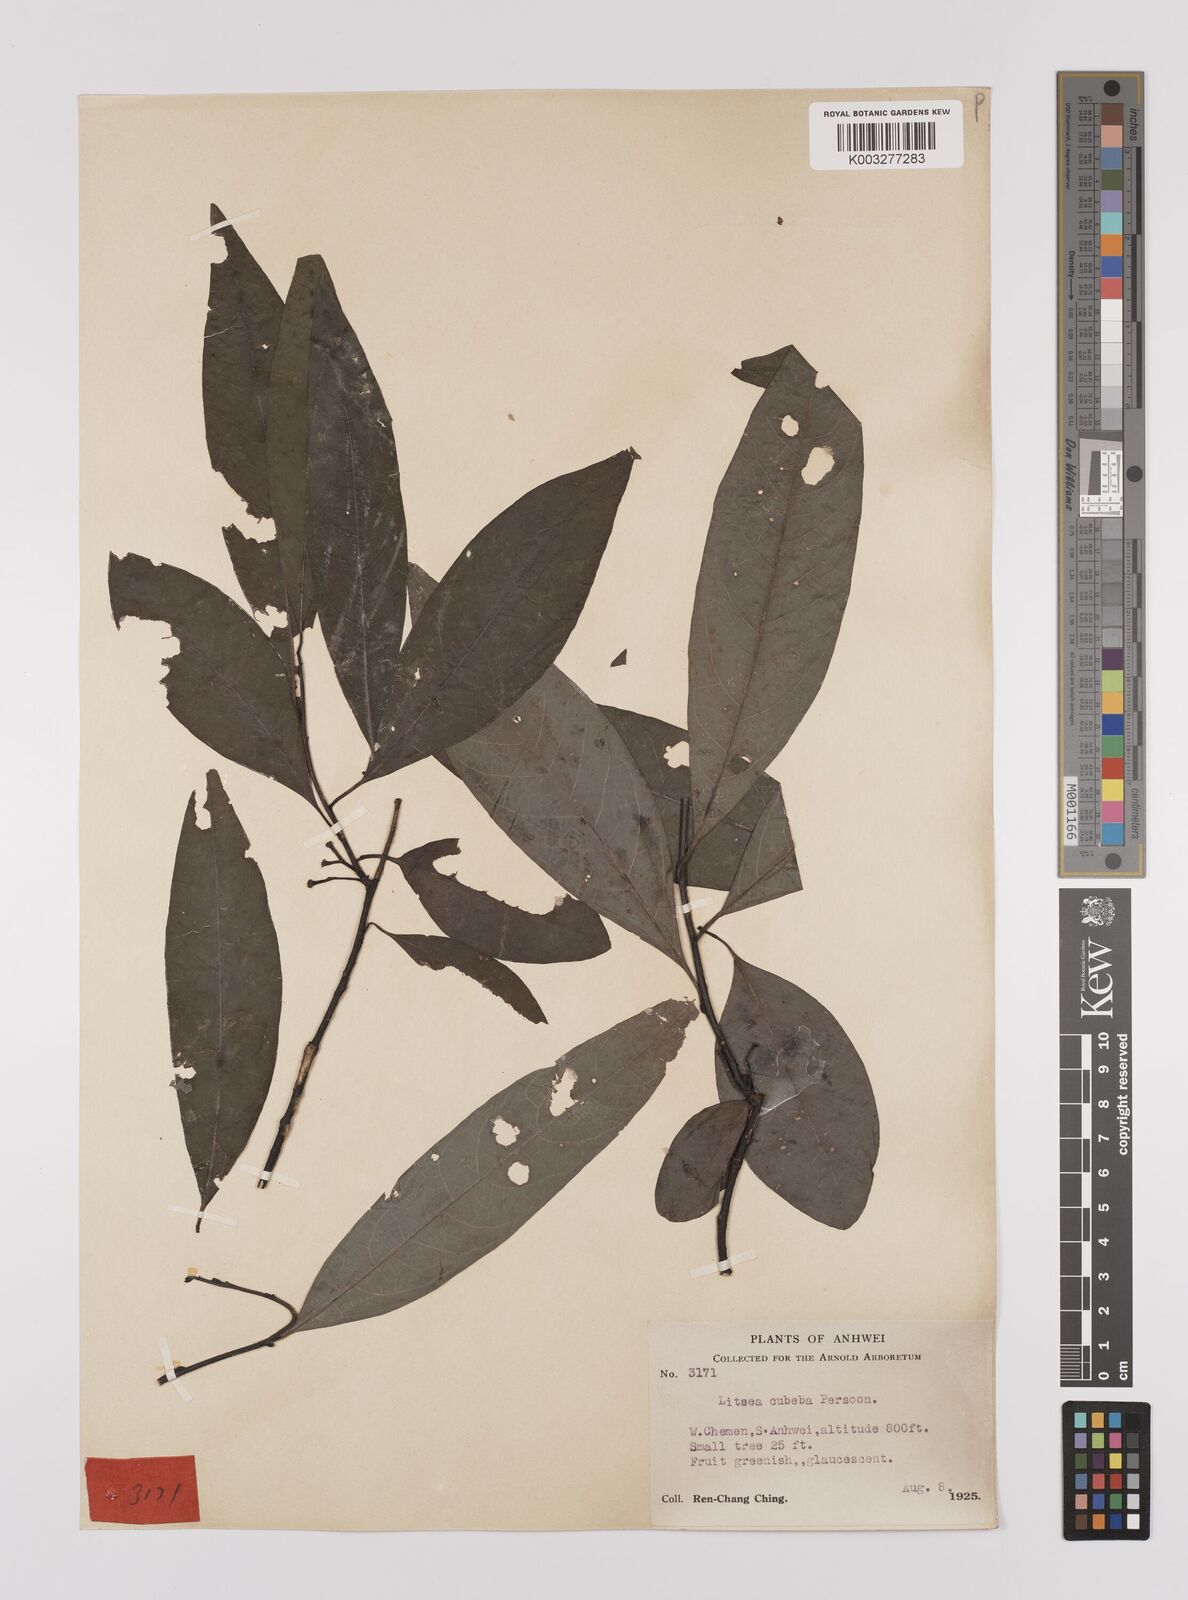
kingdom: Plantae
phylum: Tracheophyta
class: Magnoliopsida
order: Laurales
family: Lauraceae
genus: Litsea
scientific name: Litsea cubeba
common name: Mountain-pepper
